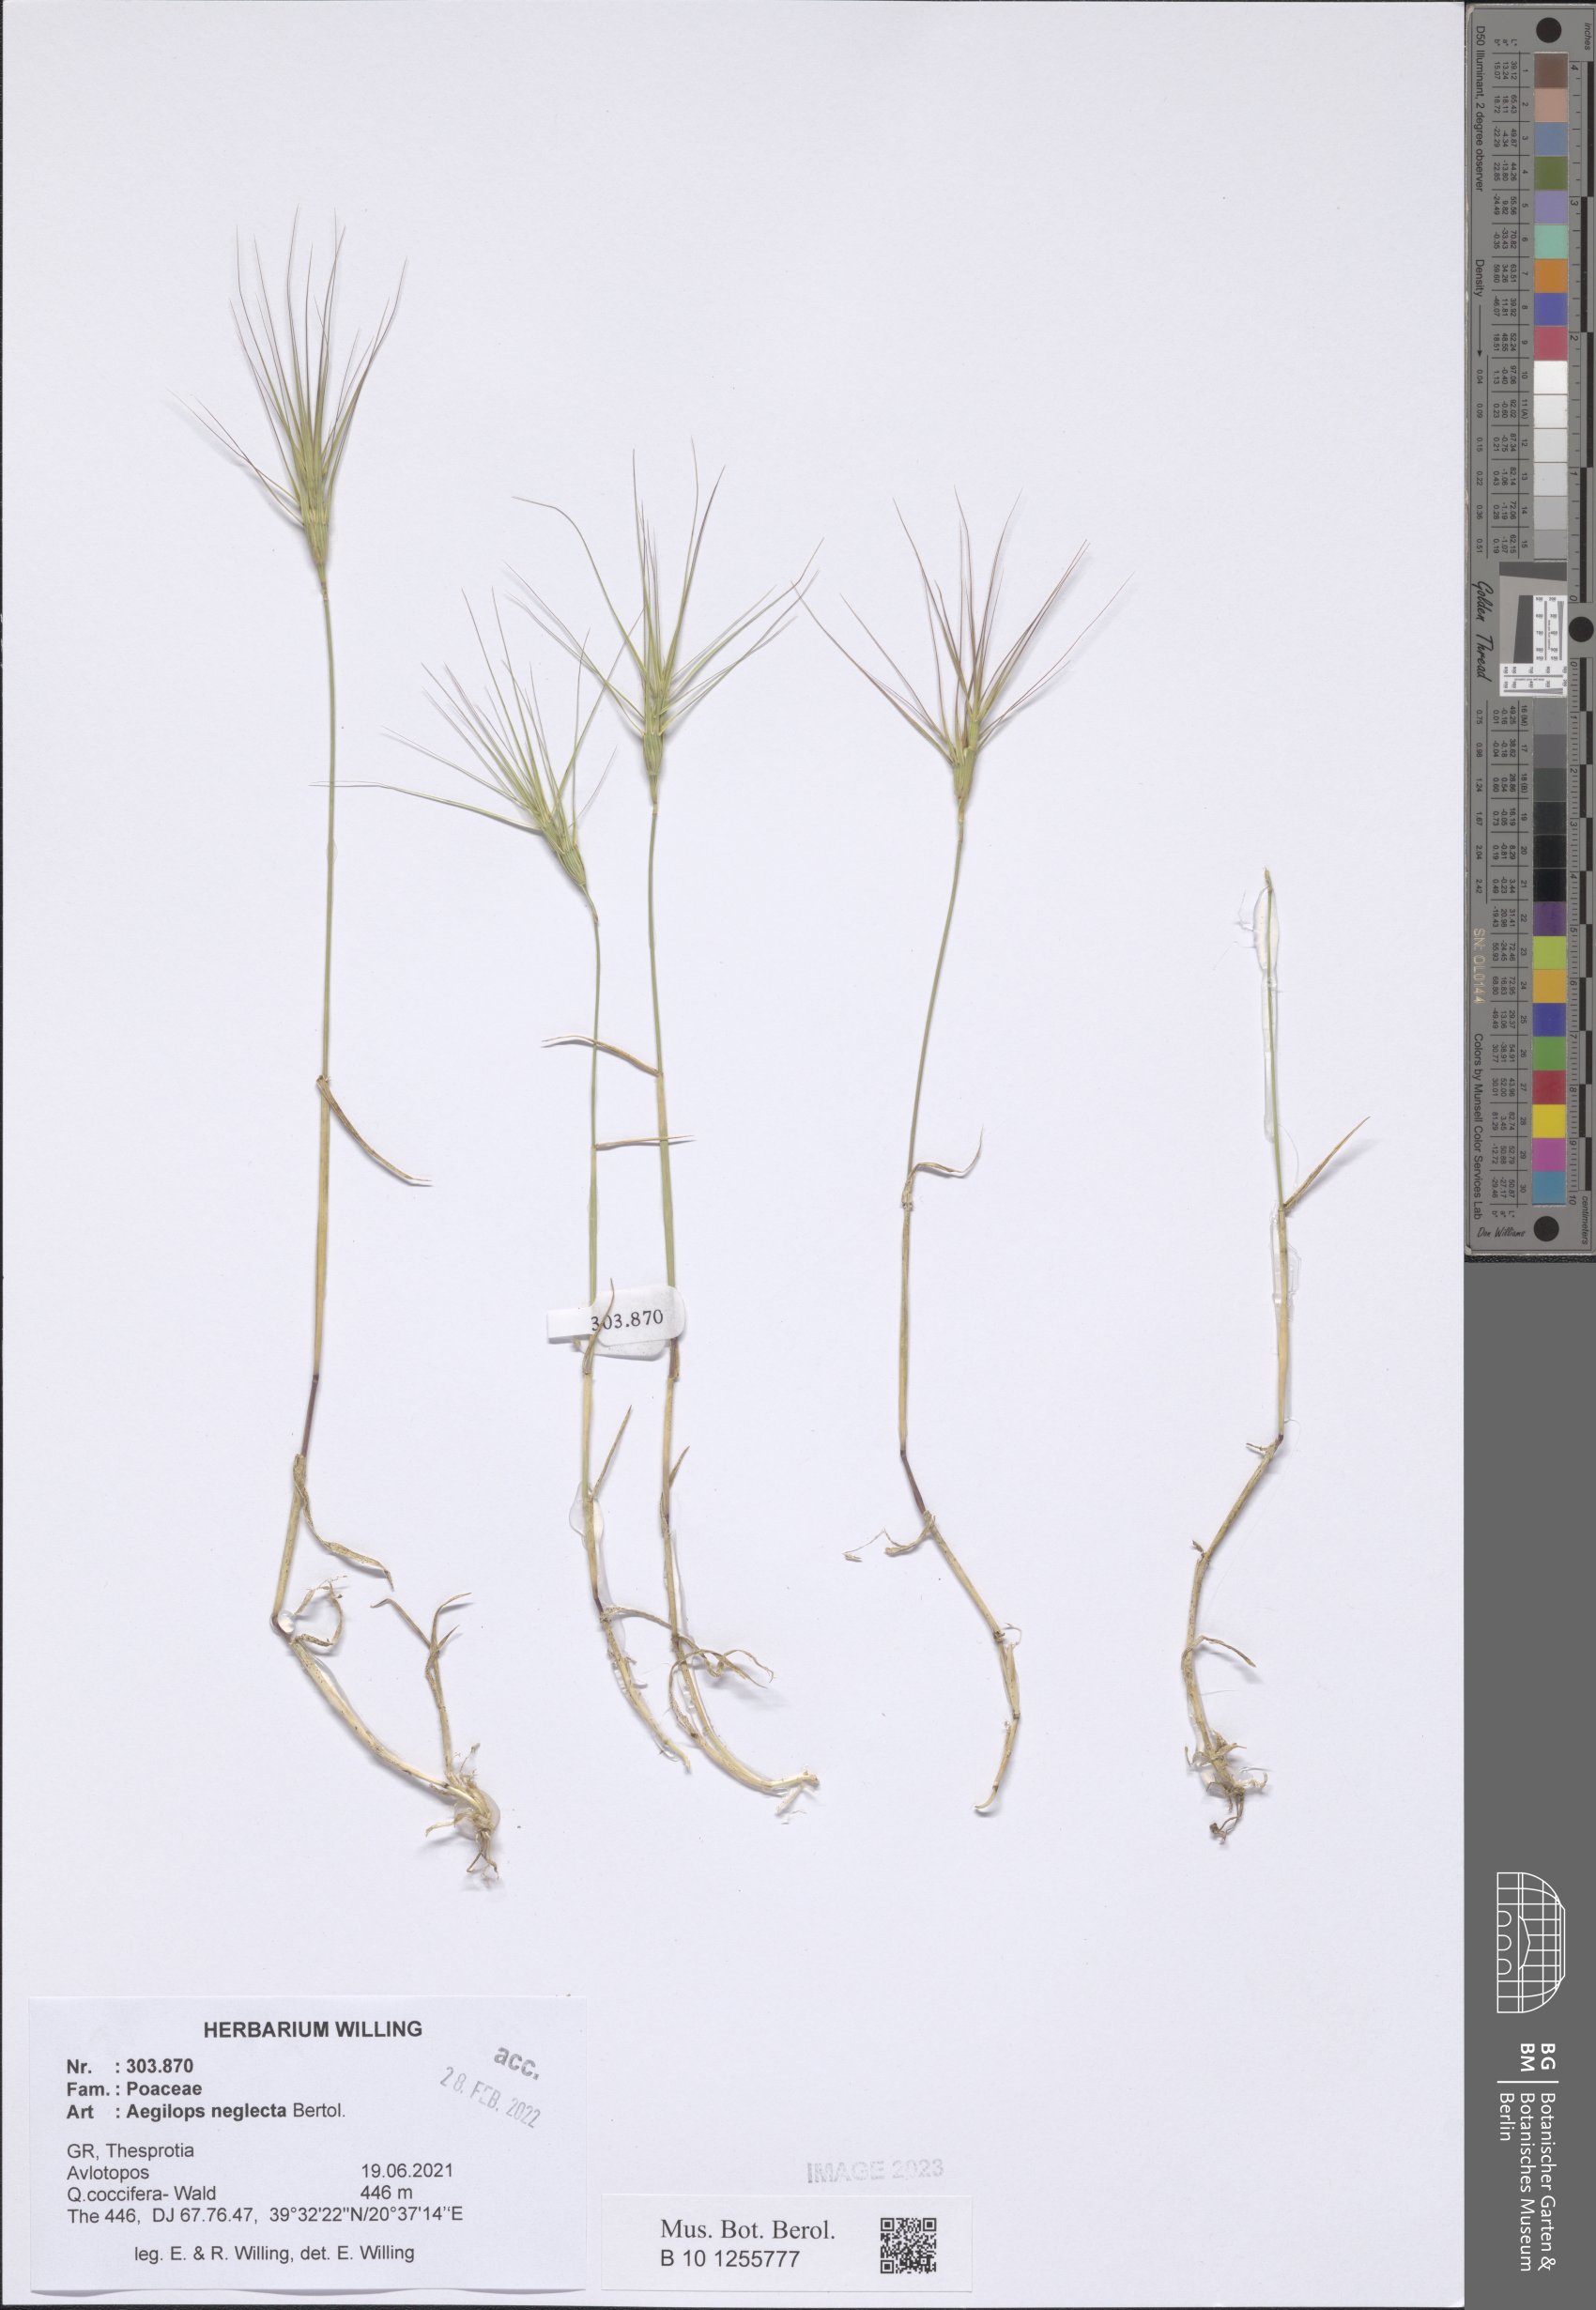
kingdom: Plantae
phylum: Tracheophyta
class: Liliopsida
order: Poales
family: Poaceae
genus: Aegilops
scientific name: Aegilops neglecta
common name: Three-awn goat grass
